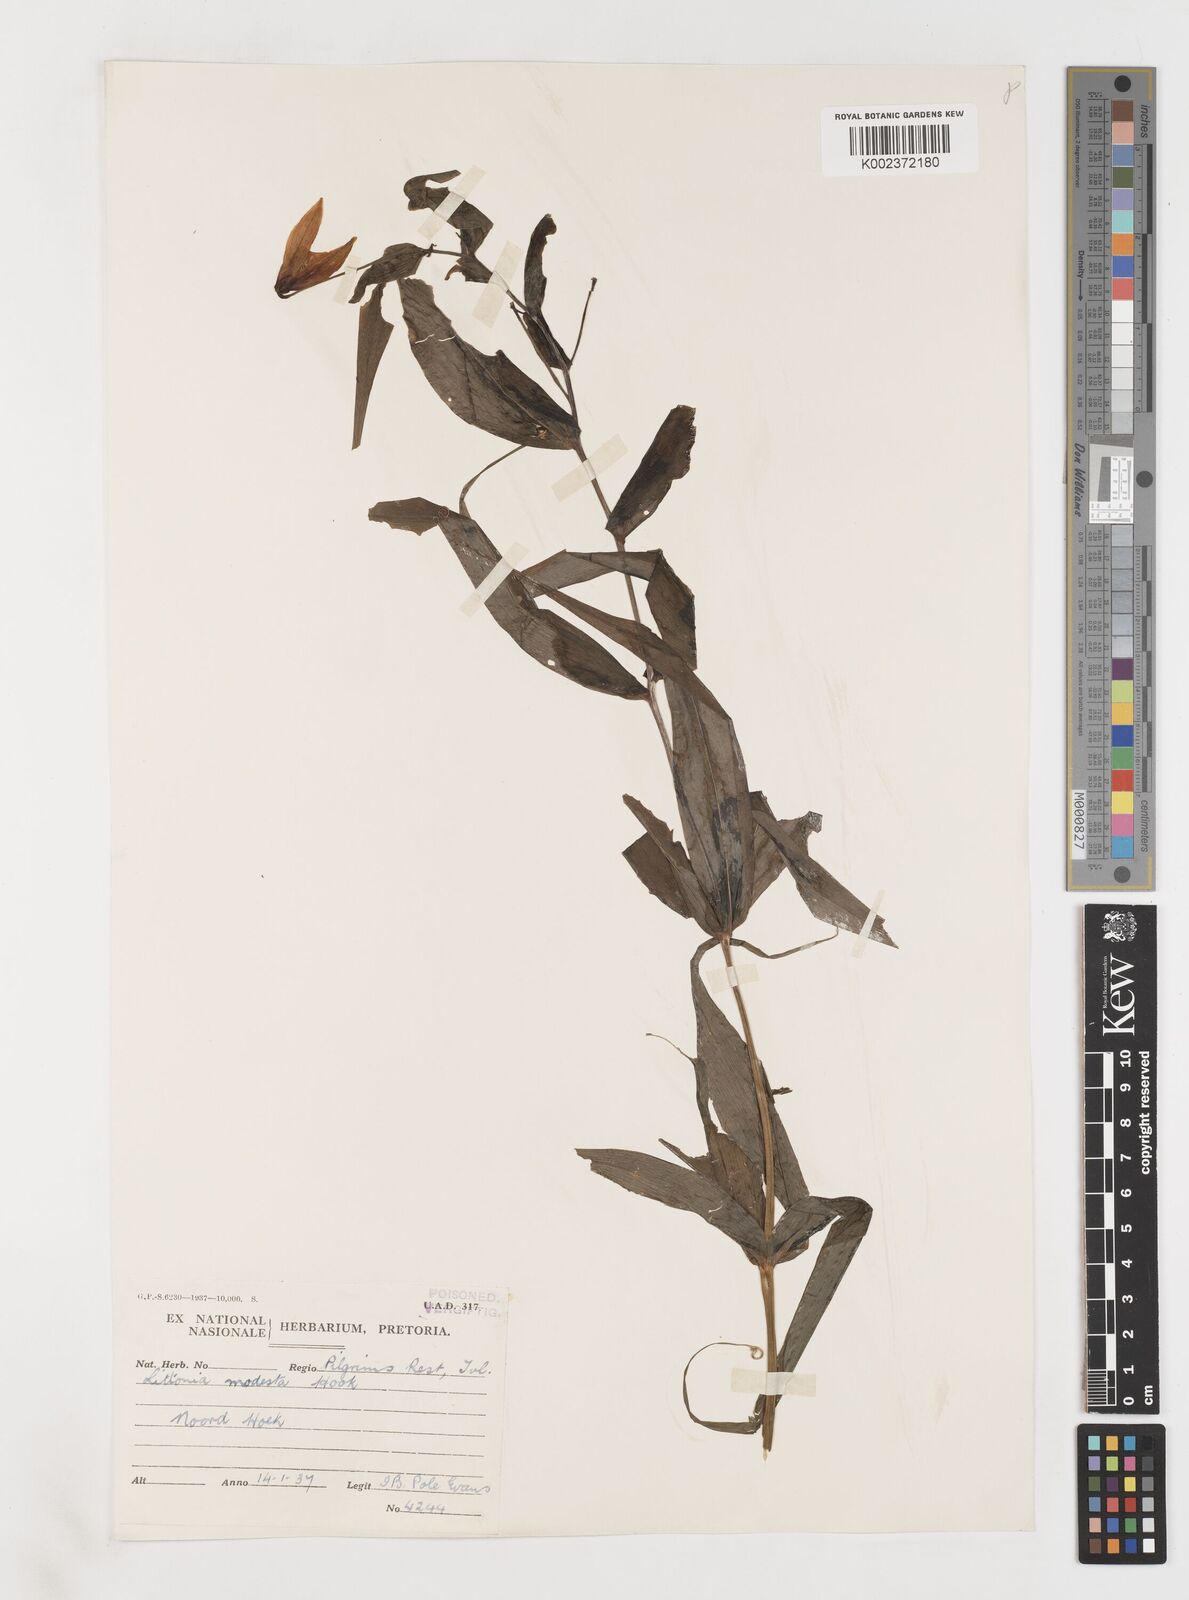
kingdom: Plantae
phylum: Tracheophyta
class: Liliopsida
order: Liliales
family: Colchicaceae
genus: Gloriosa
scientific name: Gloriosa modesta
